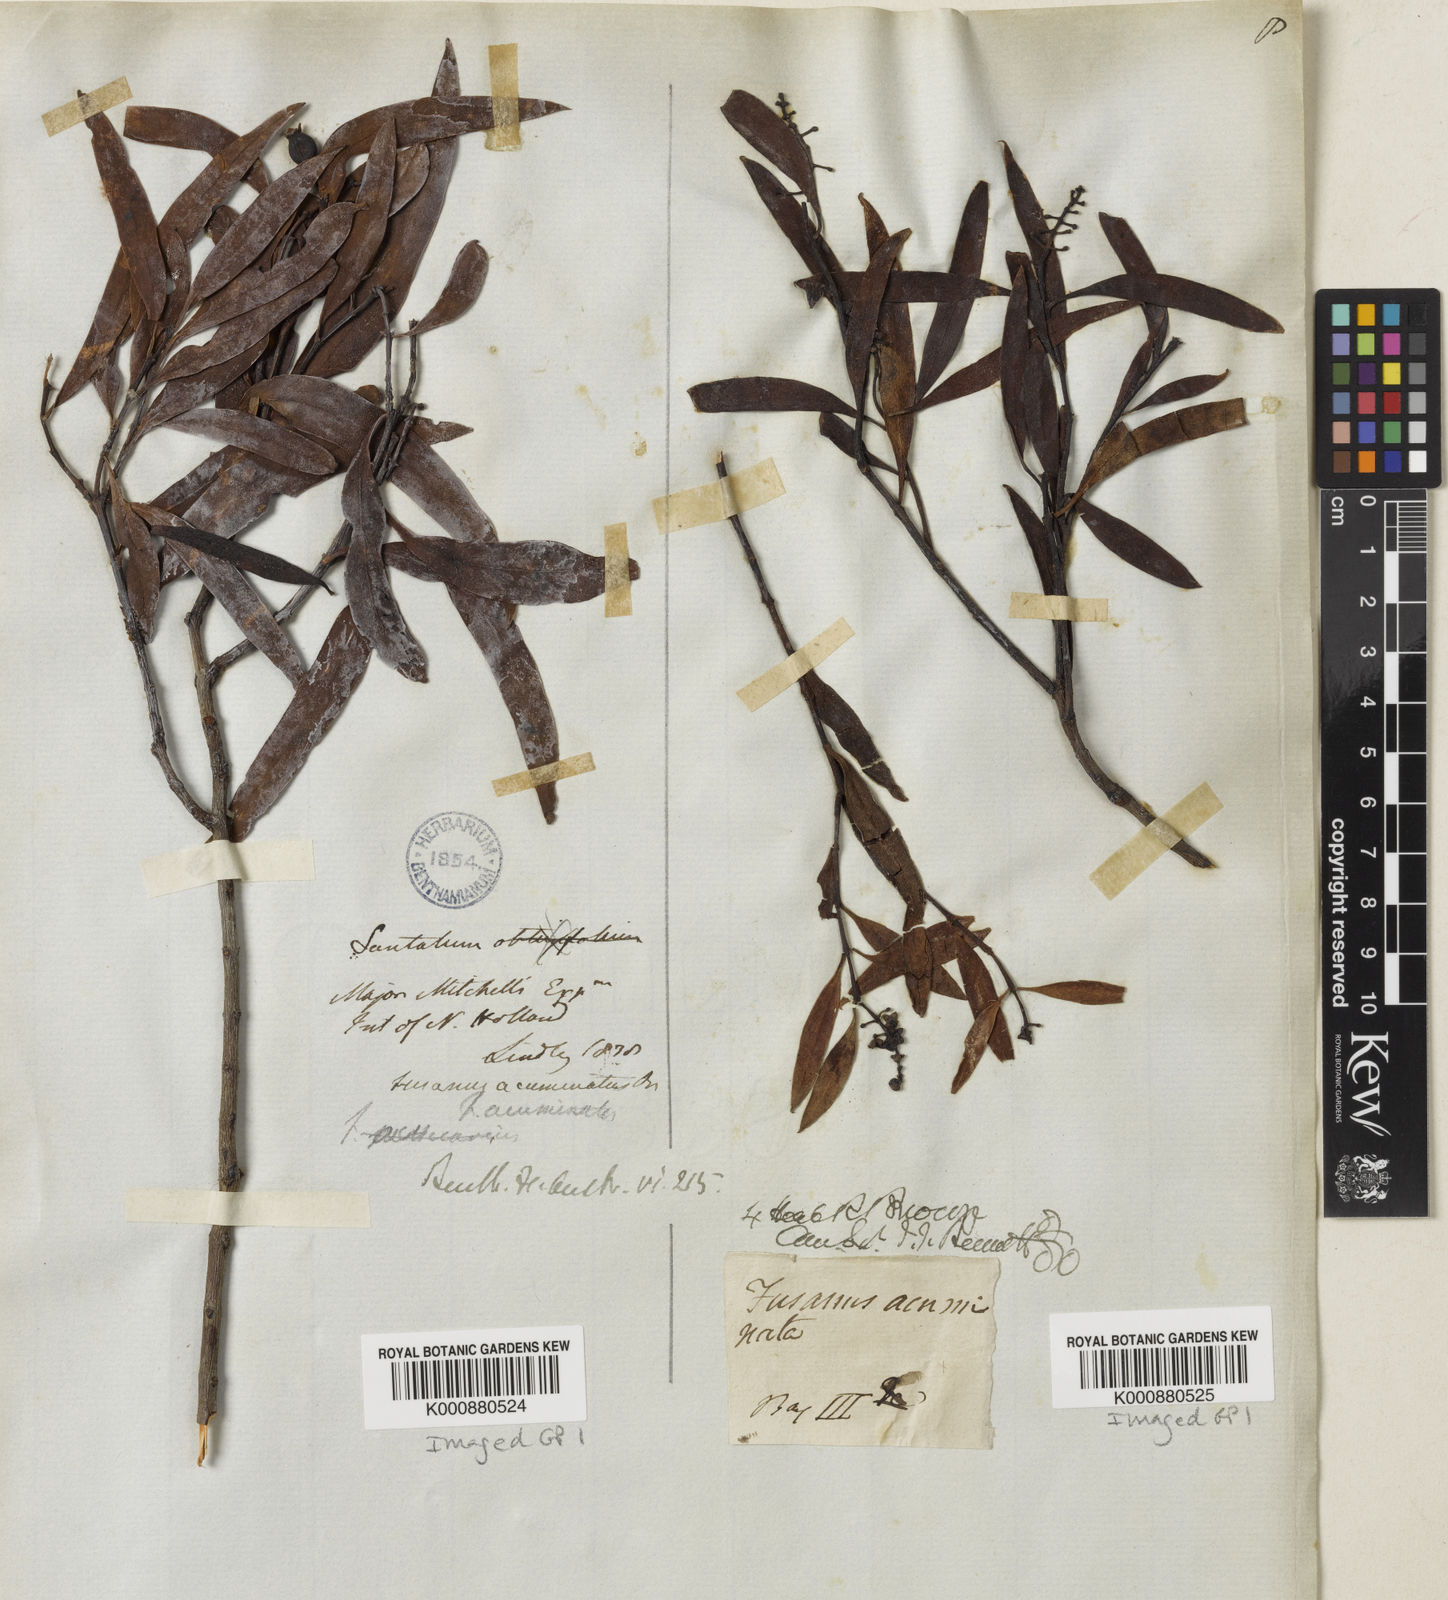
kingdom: Plantae
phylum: Tracheophyta
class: Magnoliopsida
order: Santalales
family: Santalaceae
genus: Santalum
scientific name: Santalum acuminatum
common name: Sweet quandong
